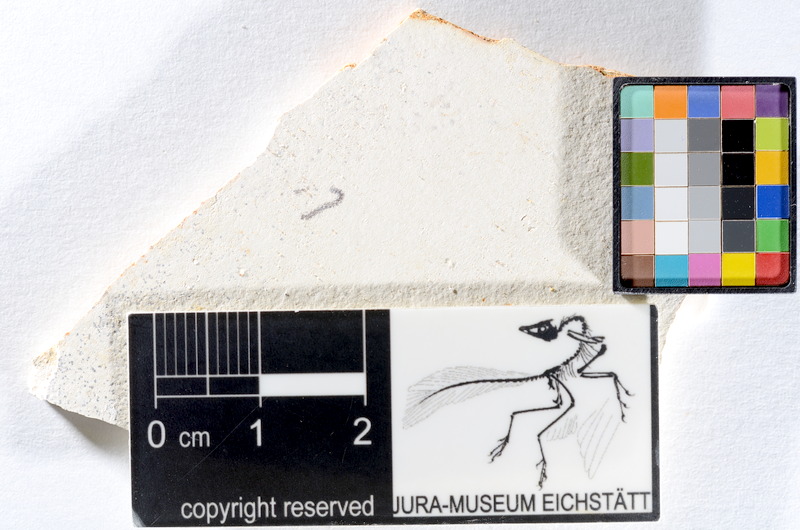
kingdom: Animalia
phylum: Chordata
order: Salmoniformes
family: Orthogonikleithridae
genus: Orthogonikleithrus
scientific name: Orthogonikleithrus hoelli
